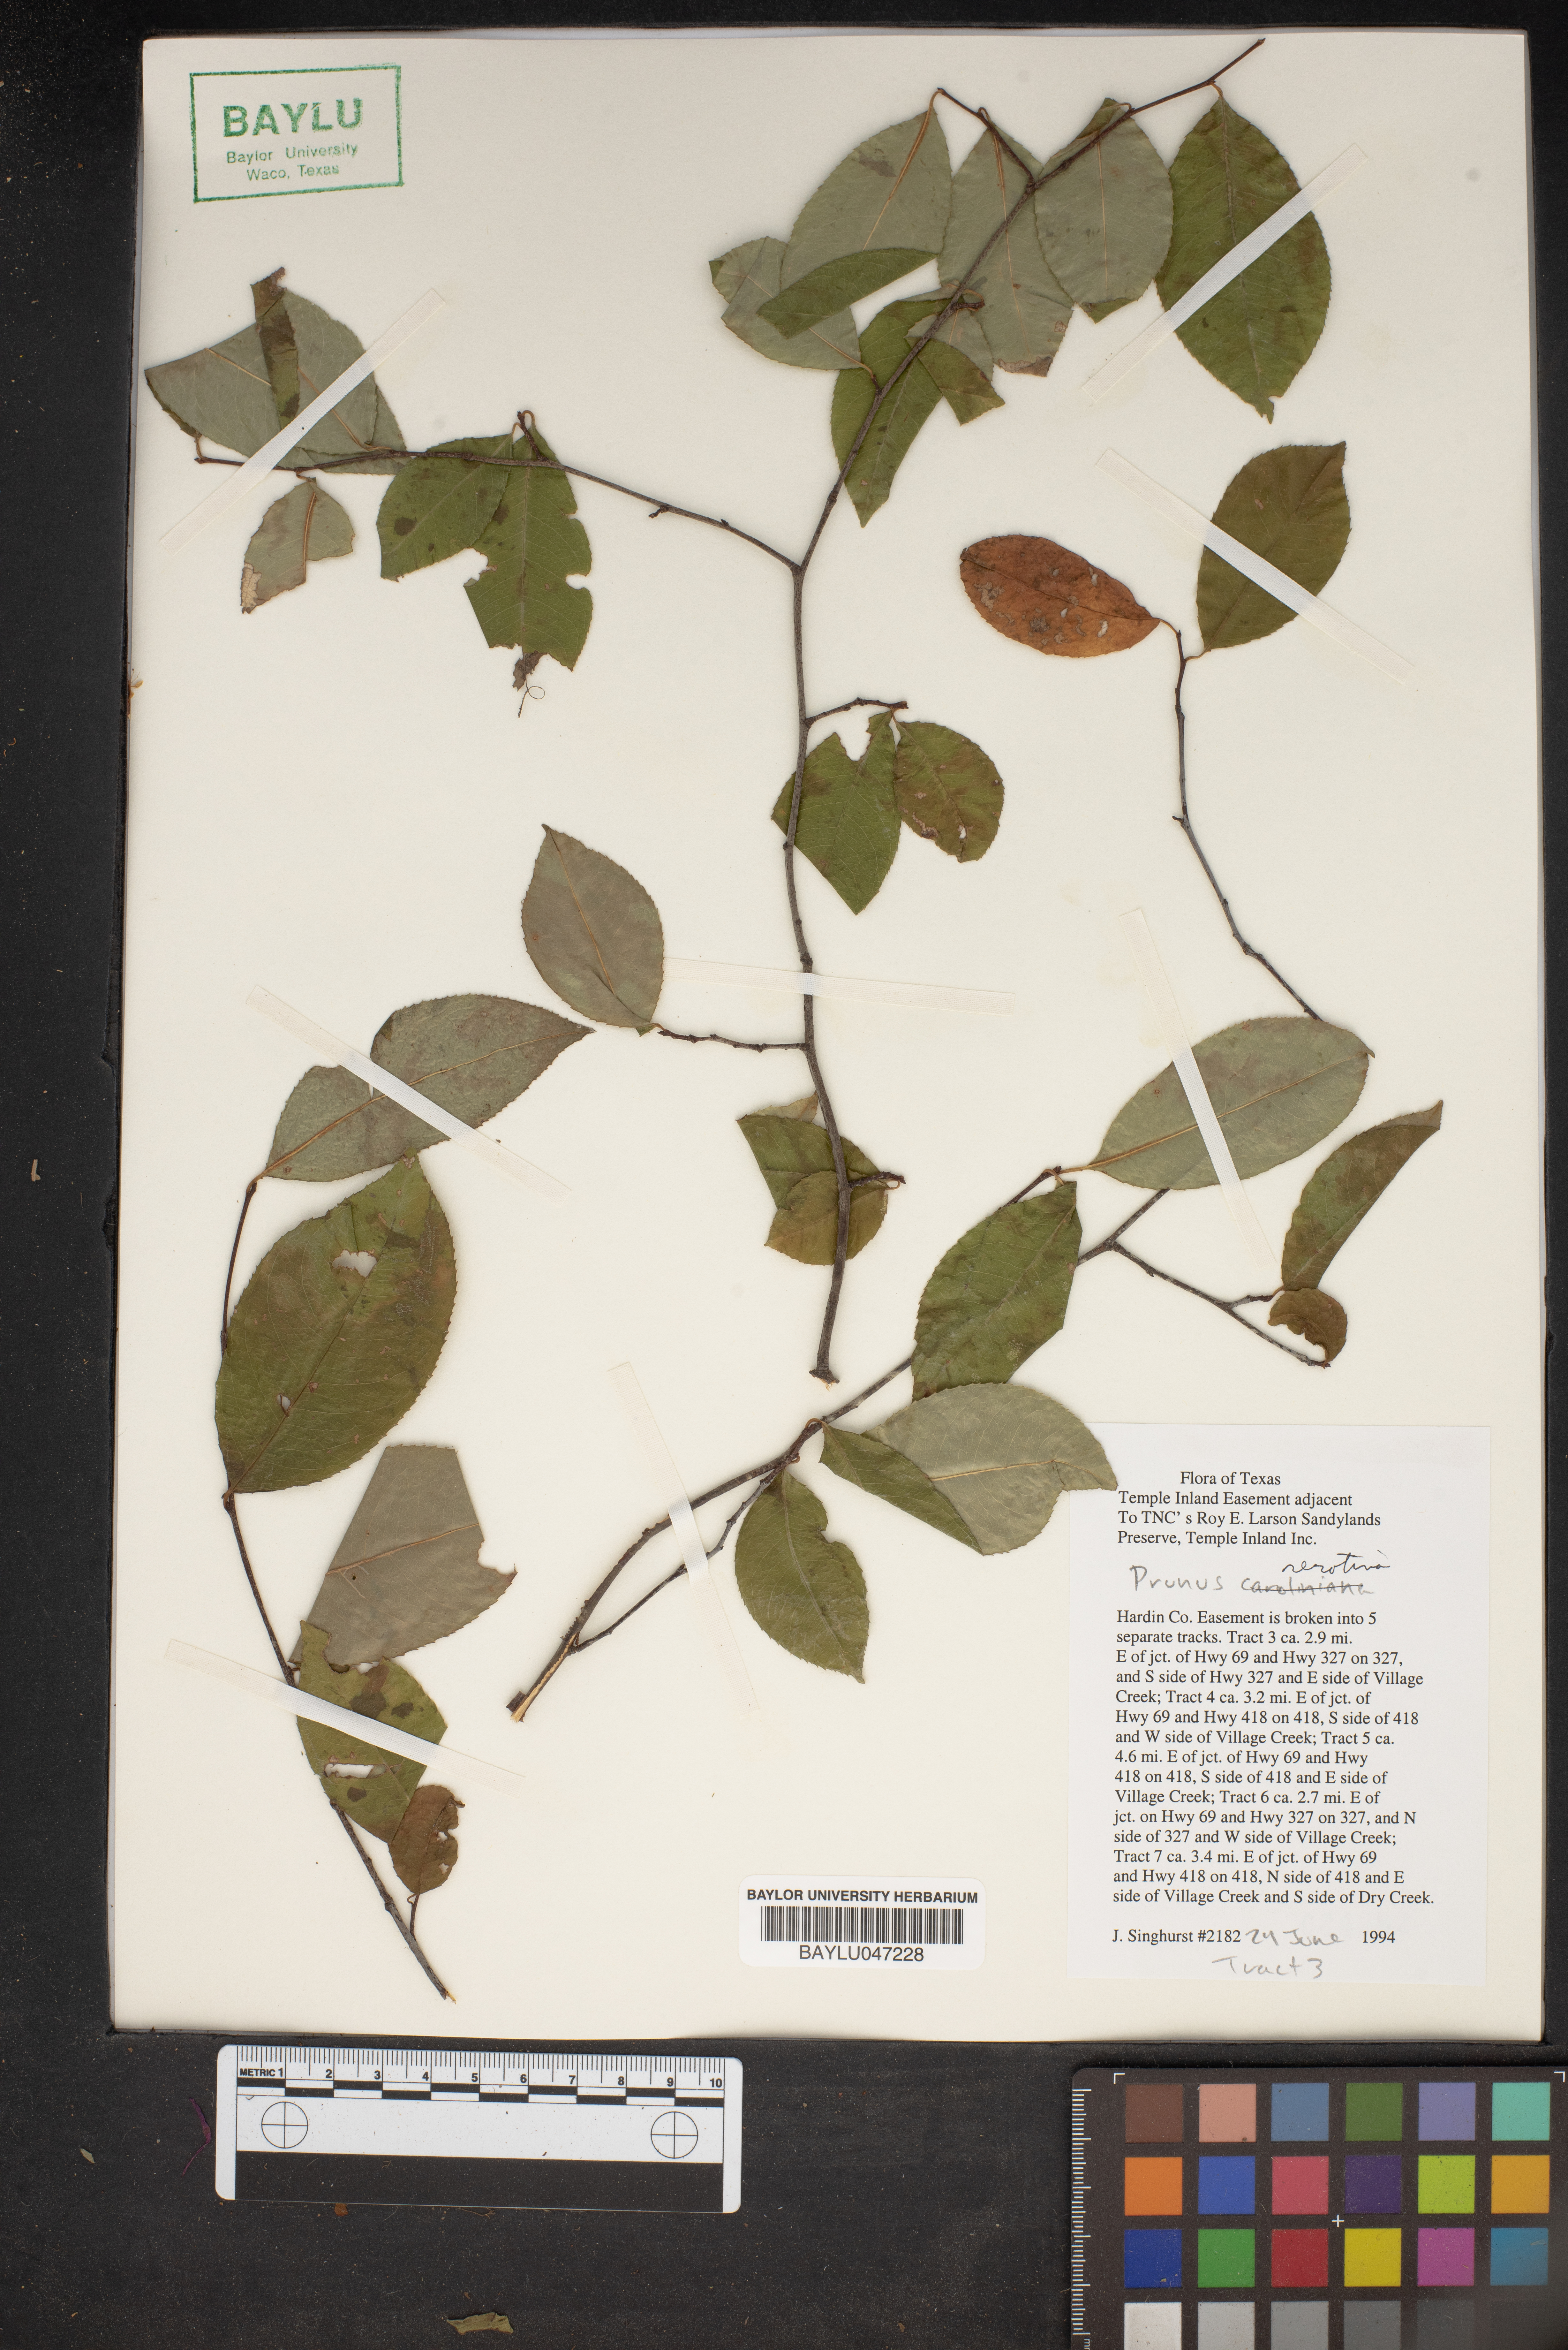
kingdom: Plantae
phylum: Tracheophyta
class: Magnoliopsida
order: Rosales
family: Rosaceae
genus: Prunus
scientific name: Prunus serotina
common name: Black cherry
